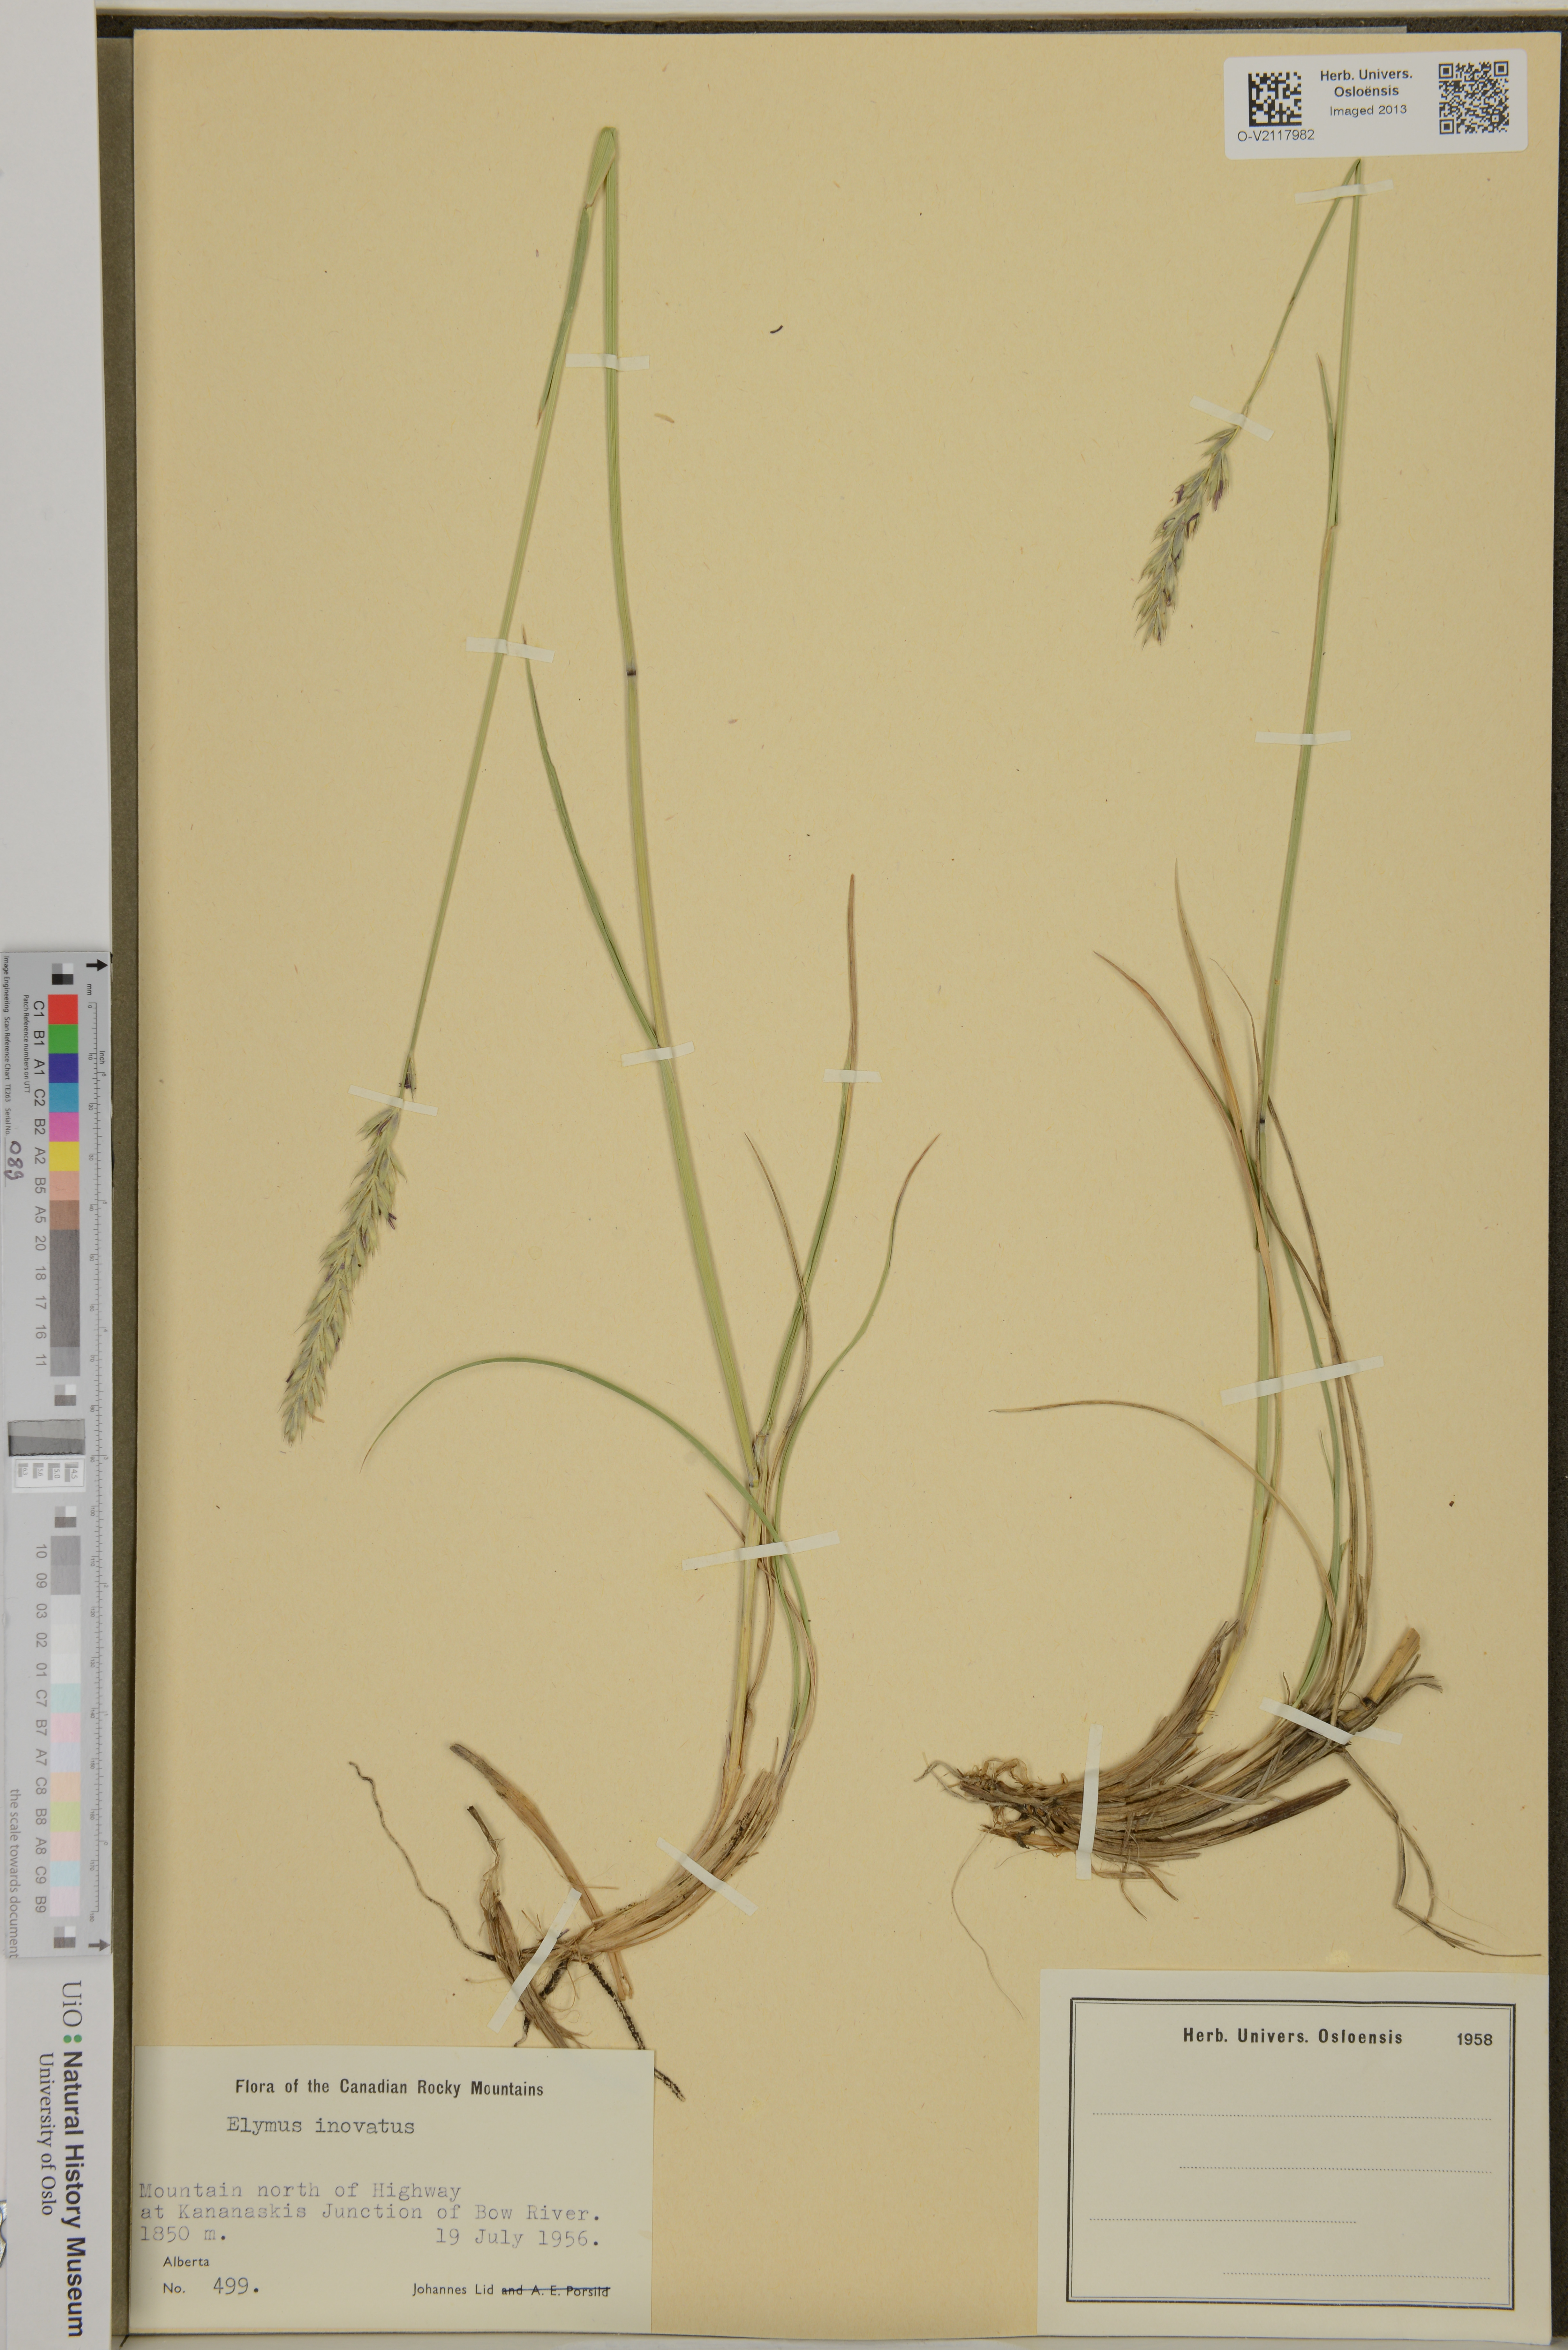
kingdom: Plantae
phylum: Tracheophyta
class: Liliopsida
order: Poales
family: Poaceae
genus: Leymus
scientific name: Leymus innovatus
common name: Boreal wild rye
